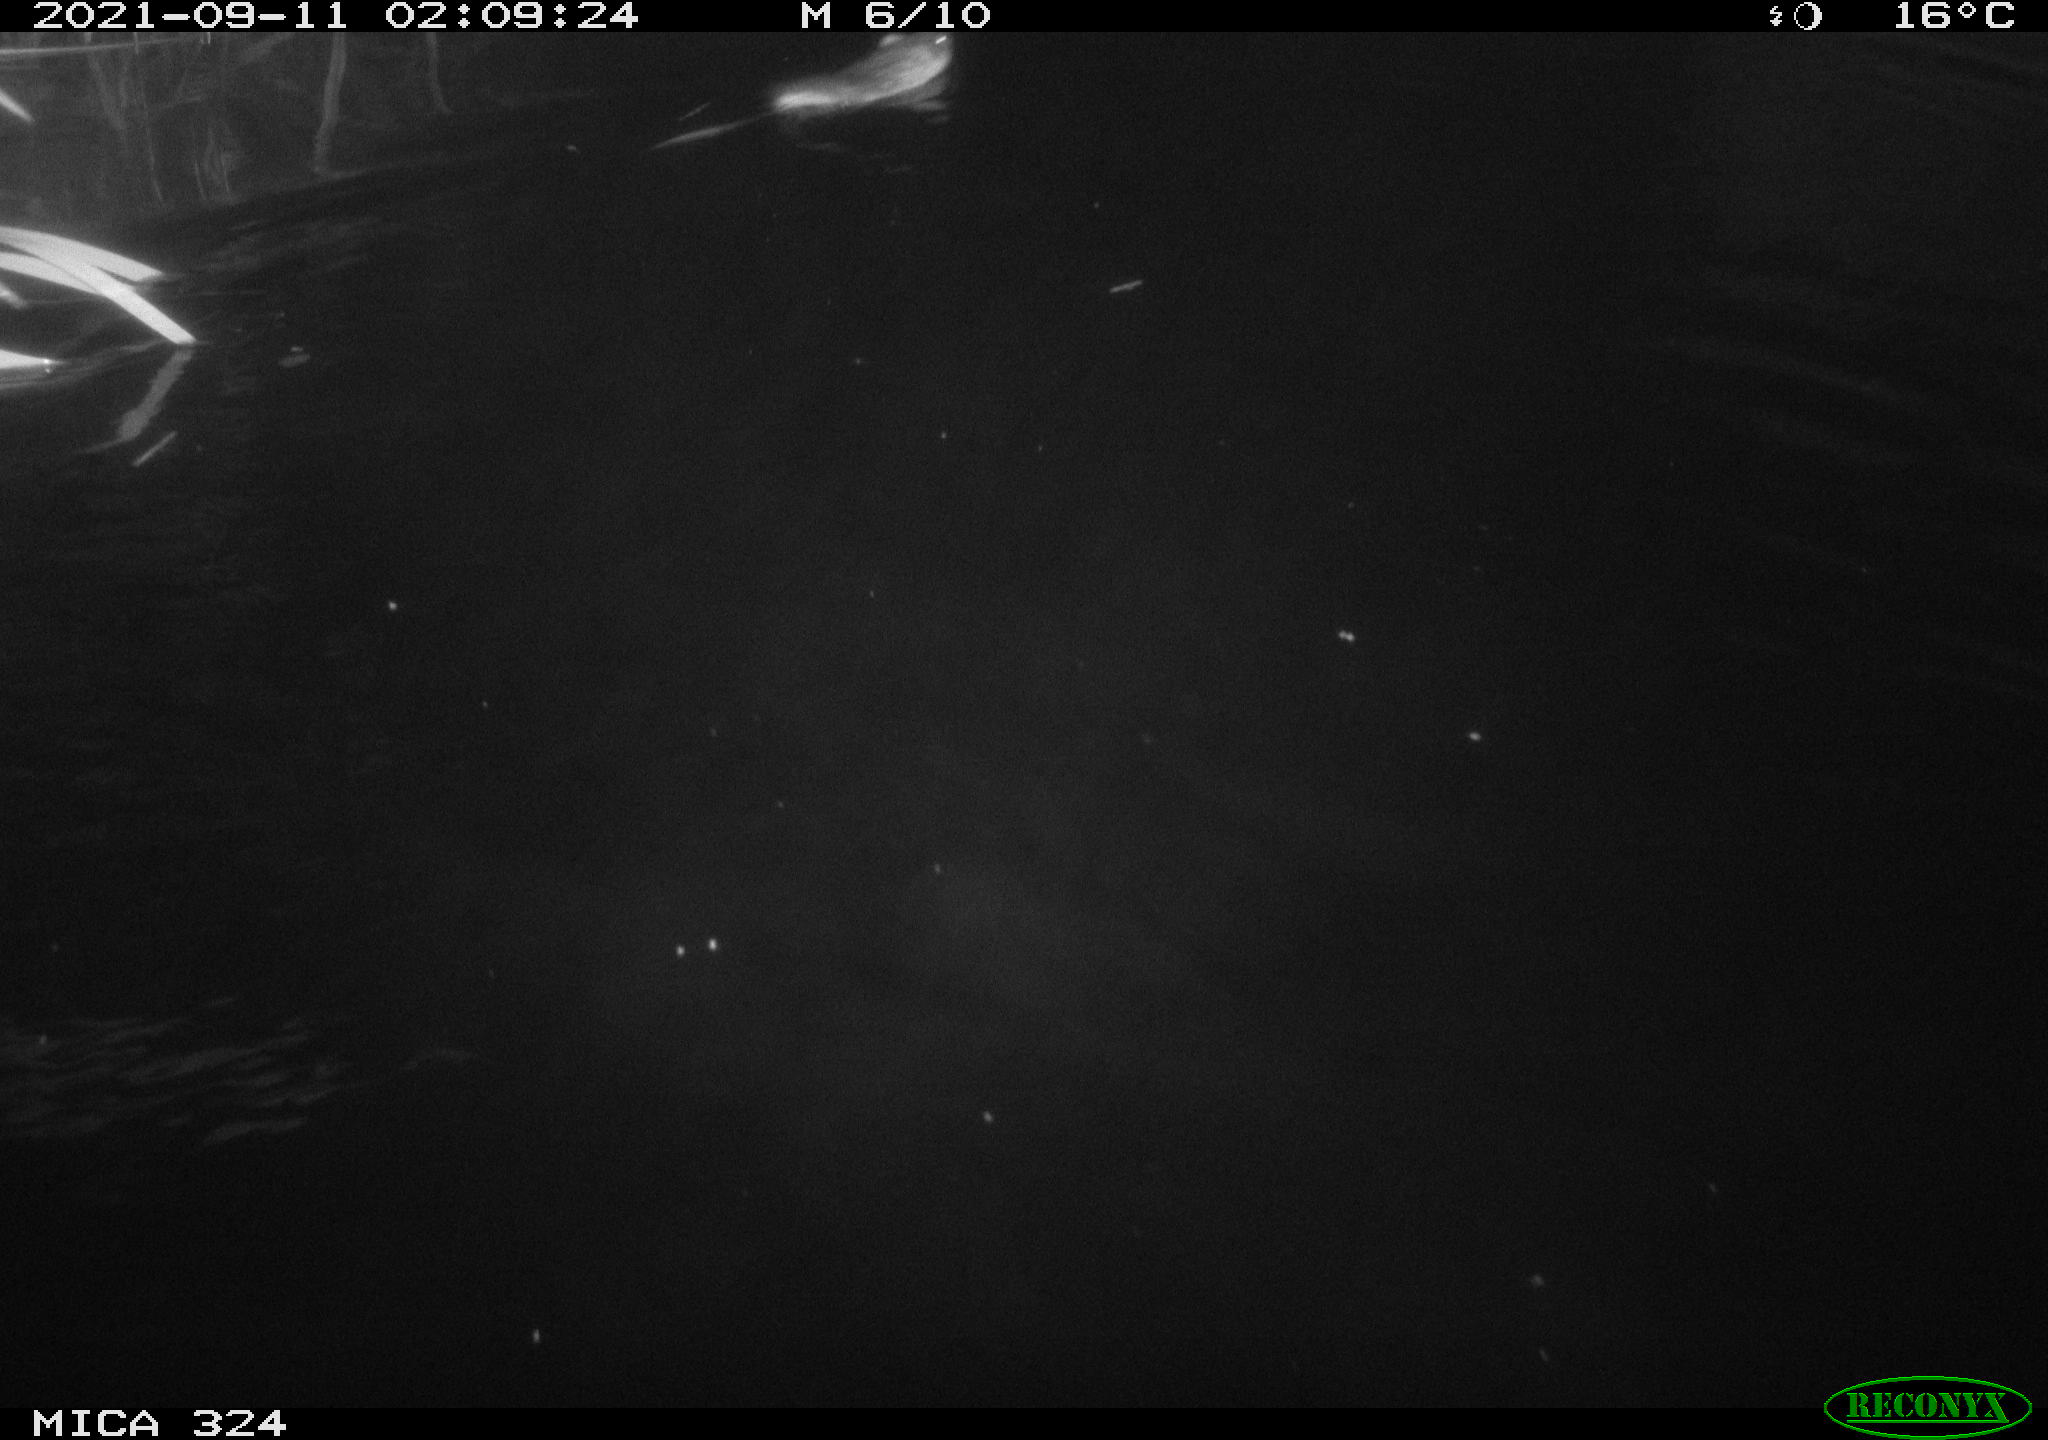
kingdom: Animalia
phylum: Chordata
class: Mammalia
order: Rodentia
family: Cricetidae
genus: Ondatra
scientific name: Ondatra zibethicus
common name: Muskrat
